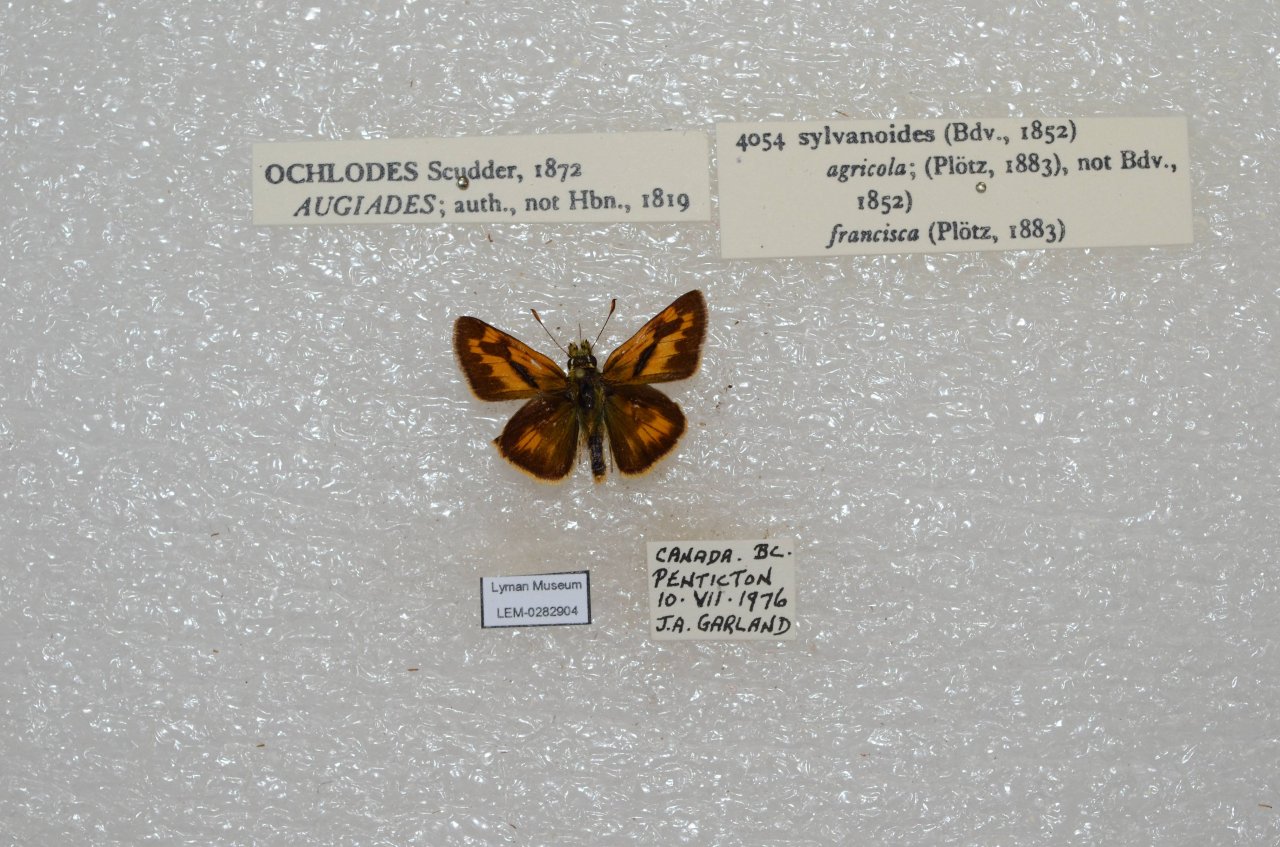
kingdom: Animalia
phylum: Arthropoda
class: Insecta
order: Lepidoptera
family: Hesperiidae
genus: Ochlodes
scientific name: Ochlodes sylvanoides
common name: Woodland Skipper
